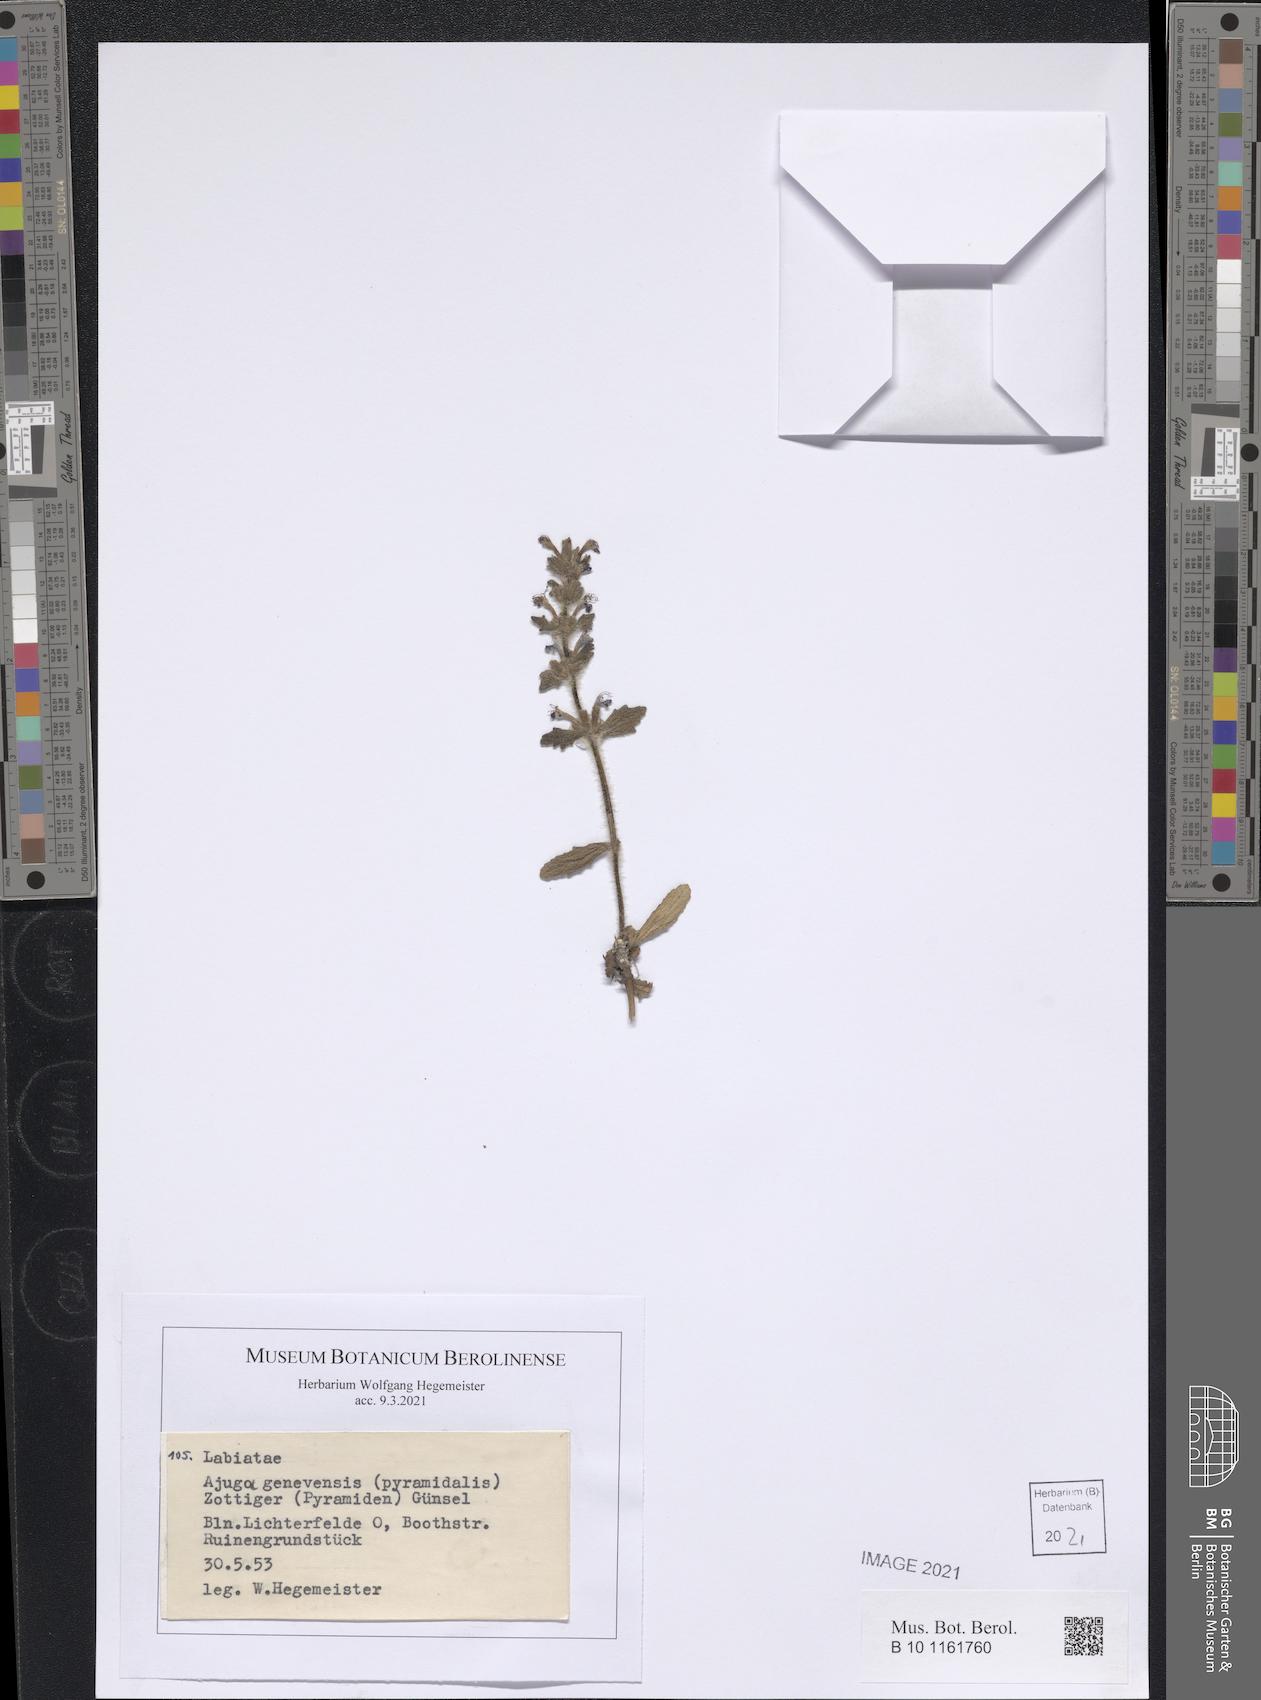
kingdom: Plantae
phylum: Tracheophyta
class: Magnoliopsida
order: Lamiales
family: Lamiaceae
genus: Ajuga
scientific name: Ajuga genevensis
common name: Blue bugle
